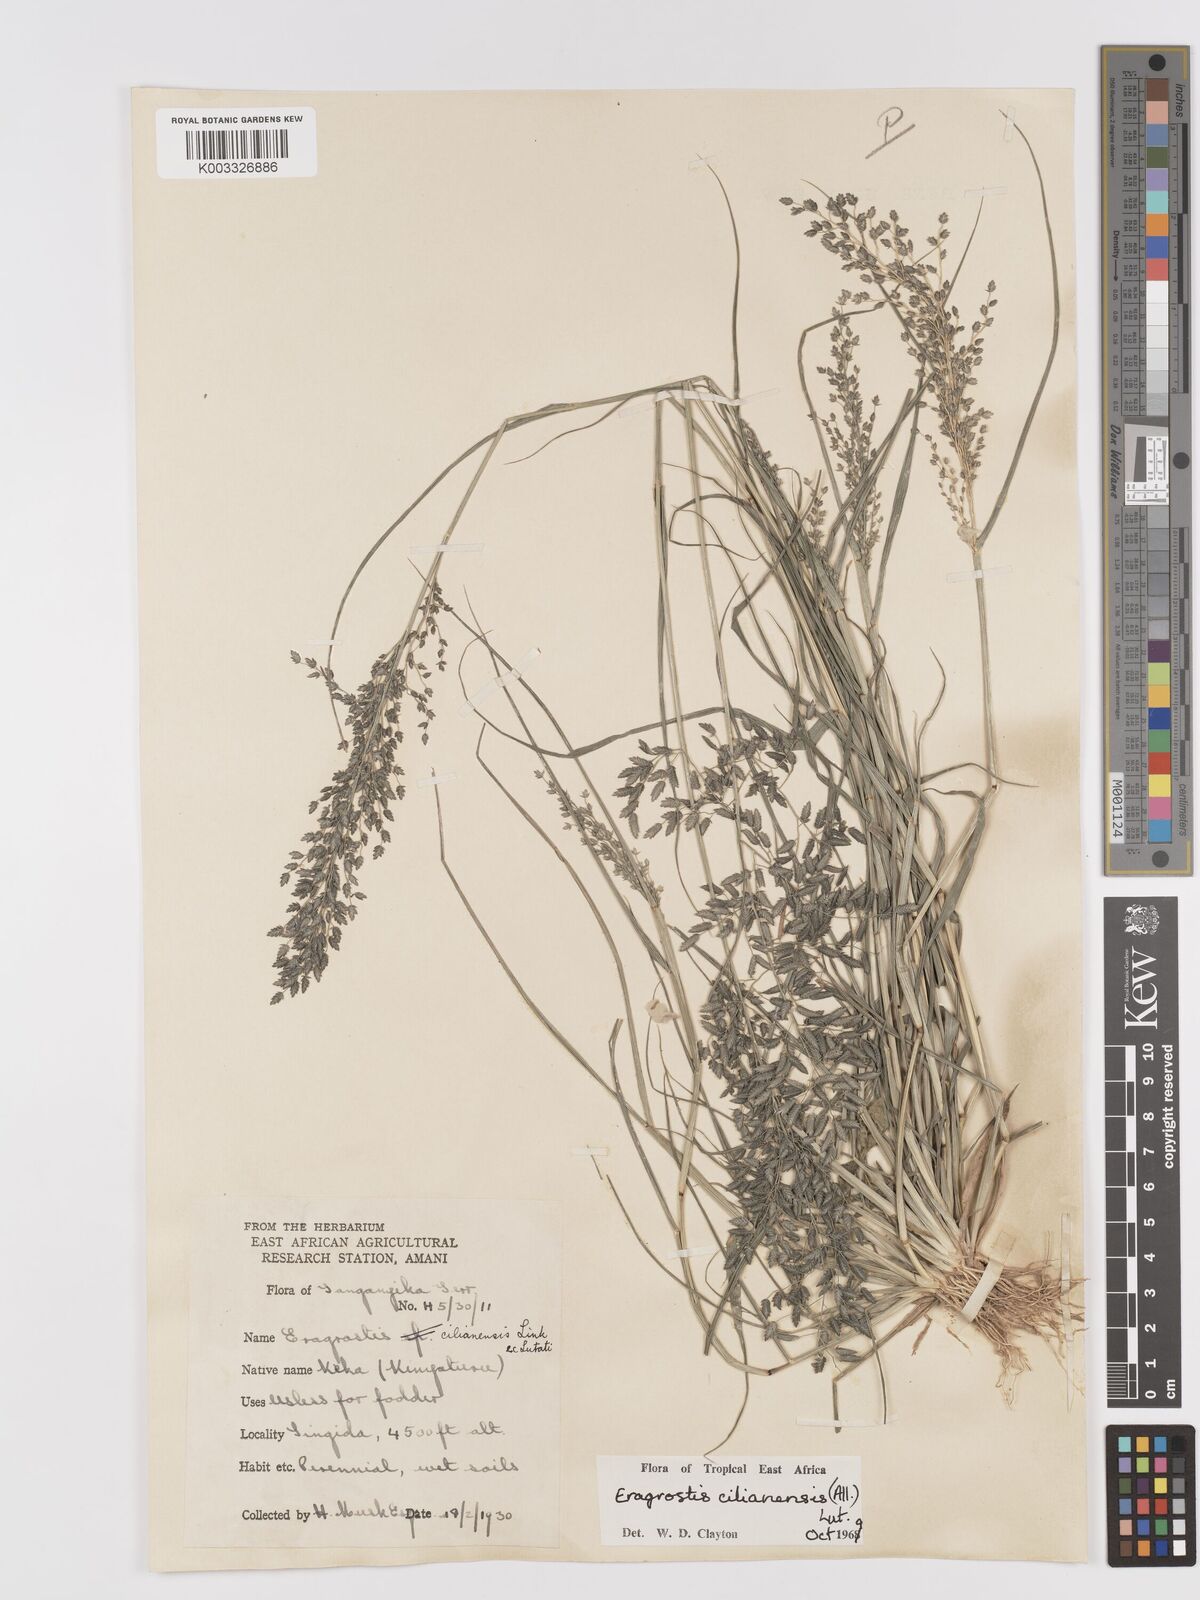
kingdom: Plantae
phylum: Tracheophyta
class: Liliopsida
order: Poales
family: Poaceae
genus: Eragrostis
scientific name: Eragrostis cilianensis
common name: Stinkgrass
